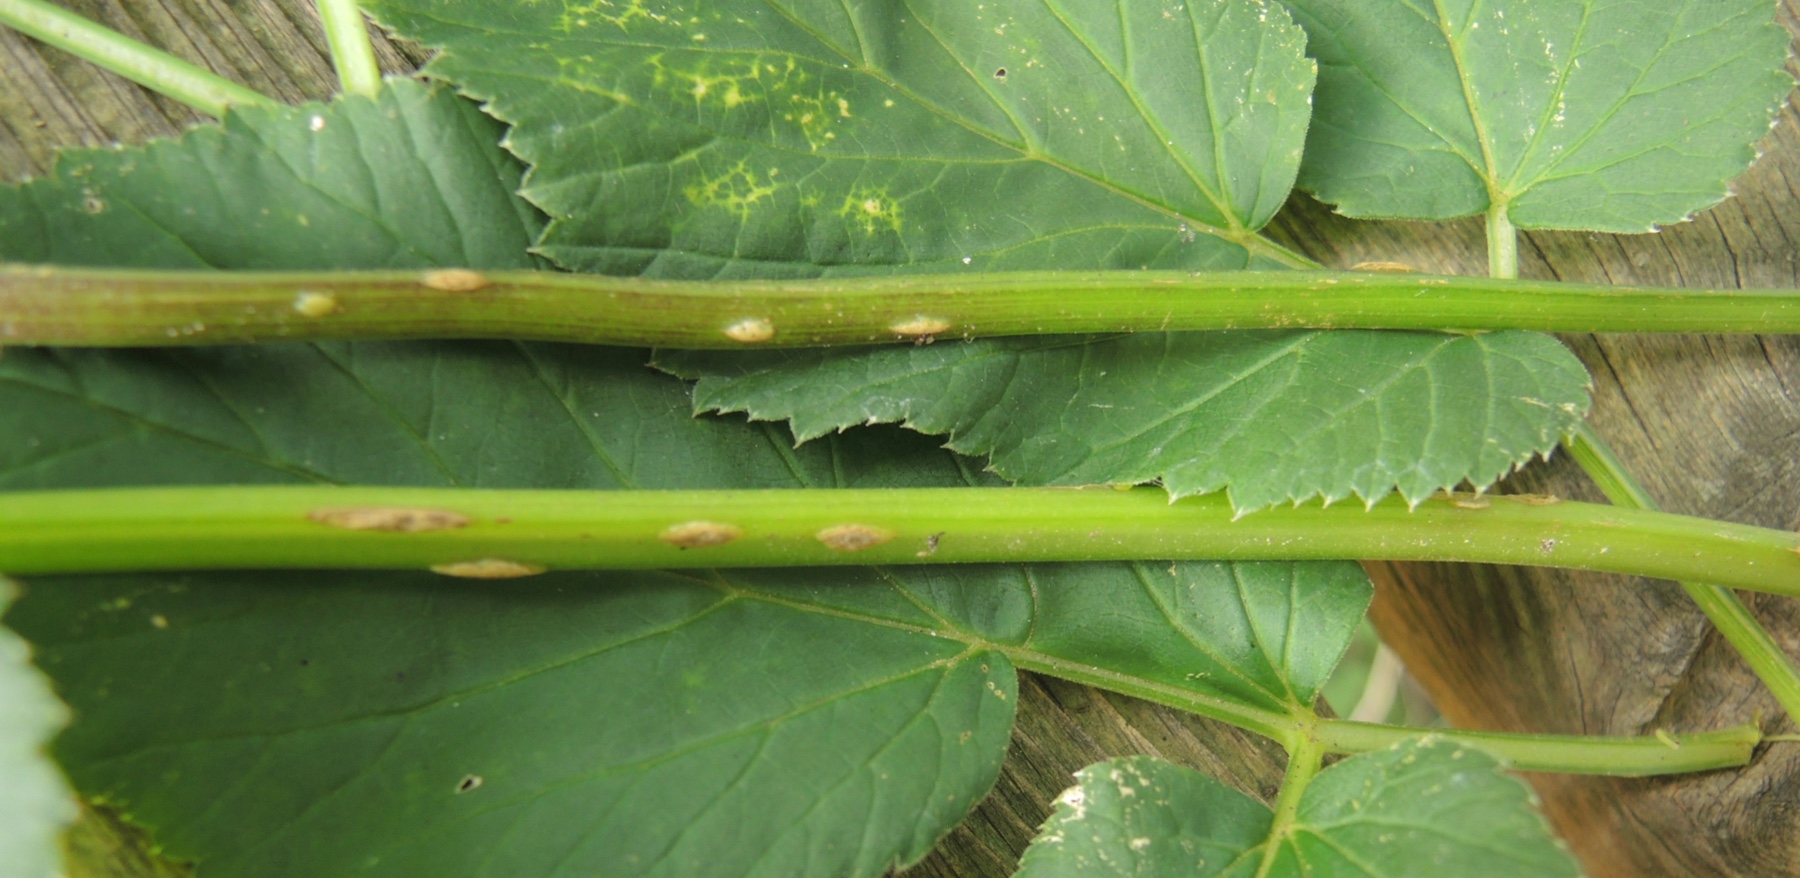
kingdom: Fungi
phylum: Ascomycota
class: Taphrinomycetes
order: Taphrinales
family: Taphrinaceae
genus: Protomyces
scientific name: Protomyces macrosporus
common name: skvalderkål-vablesæk
